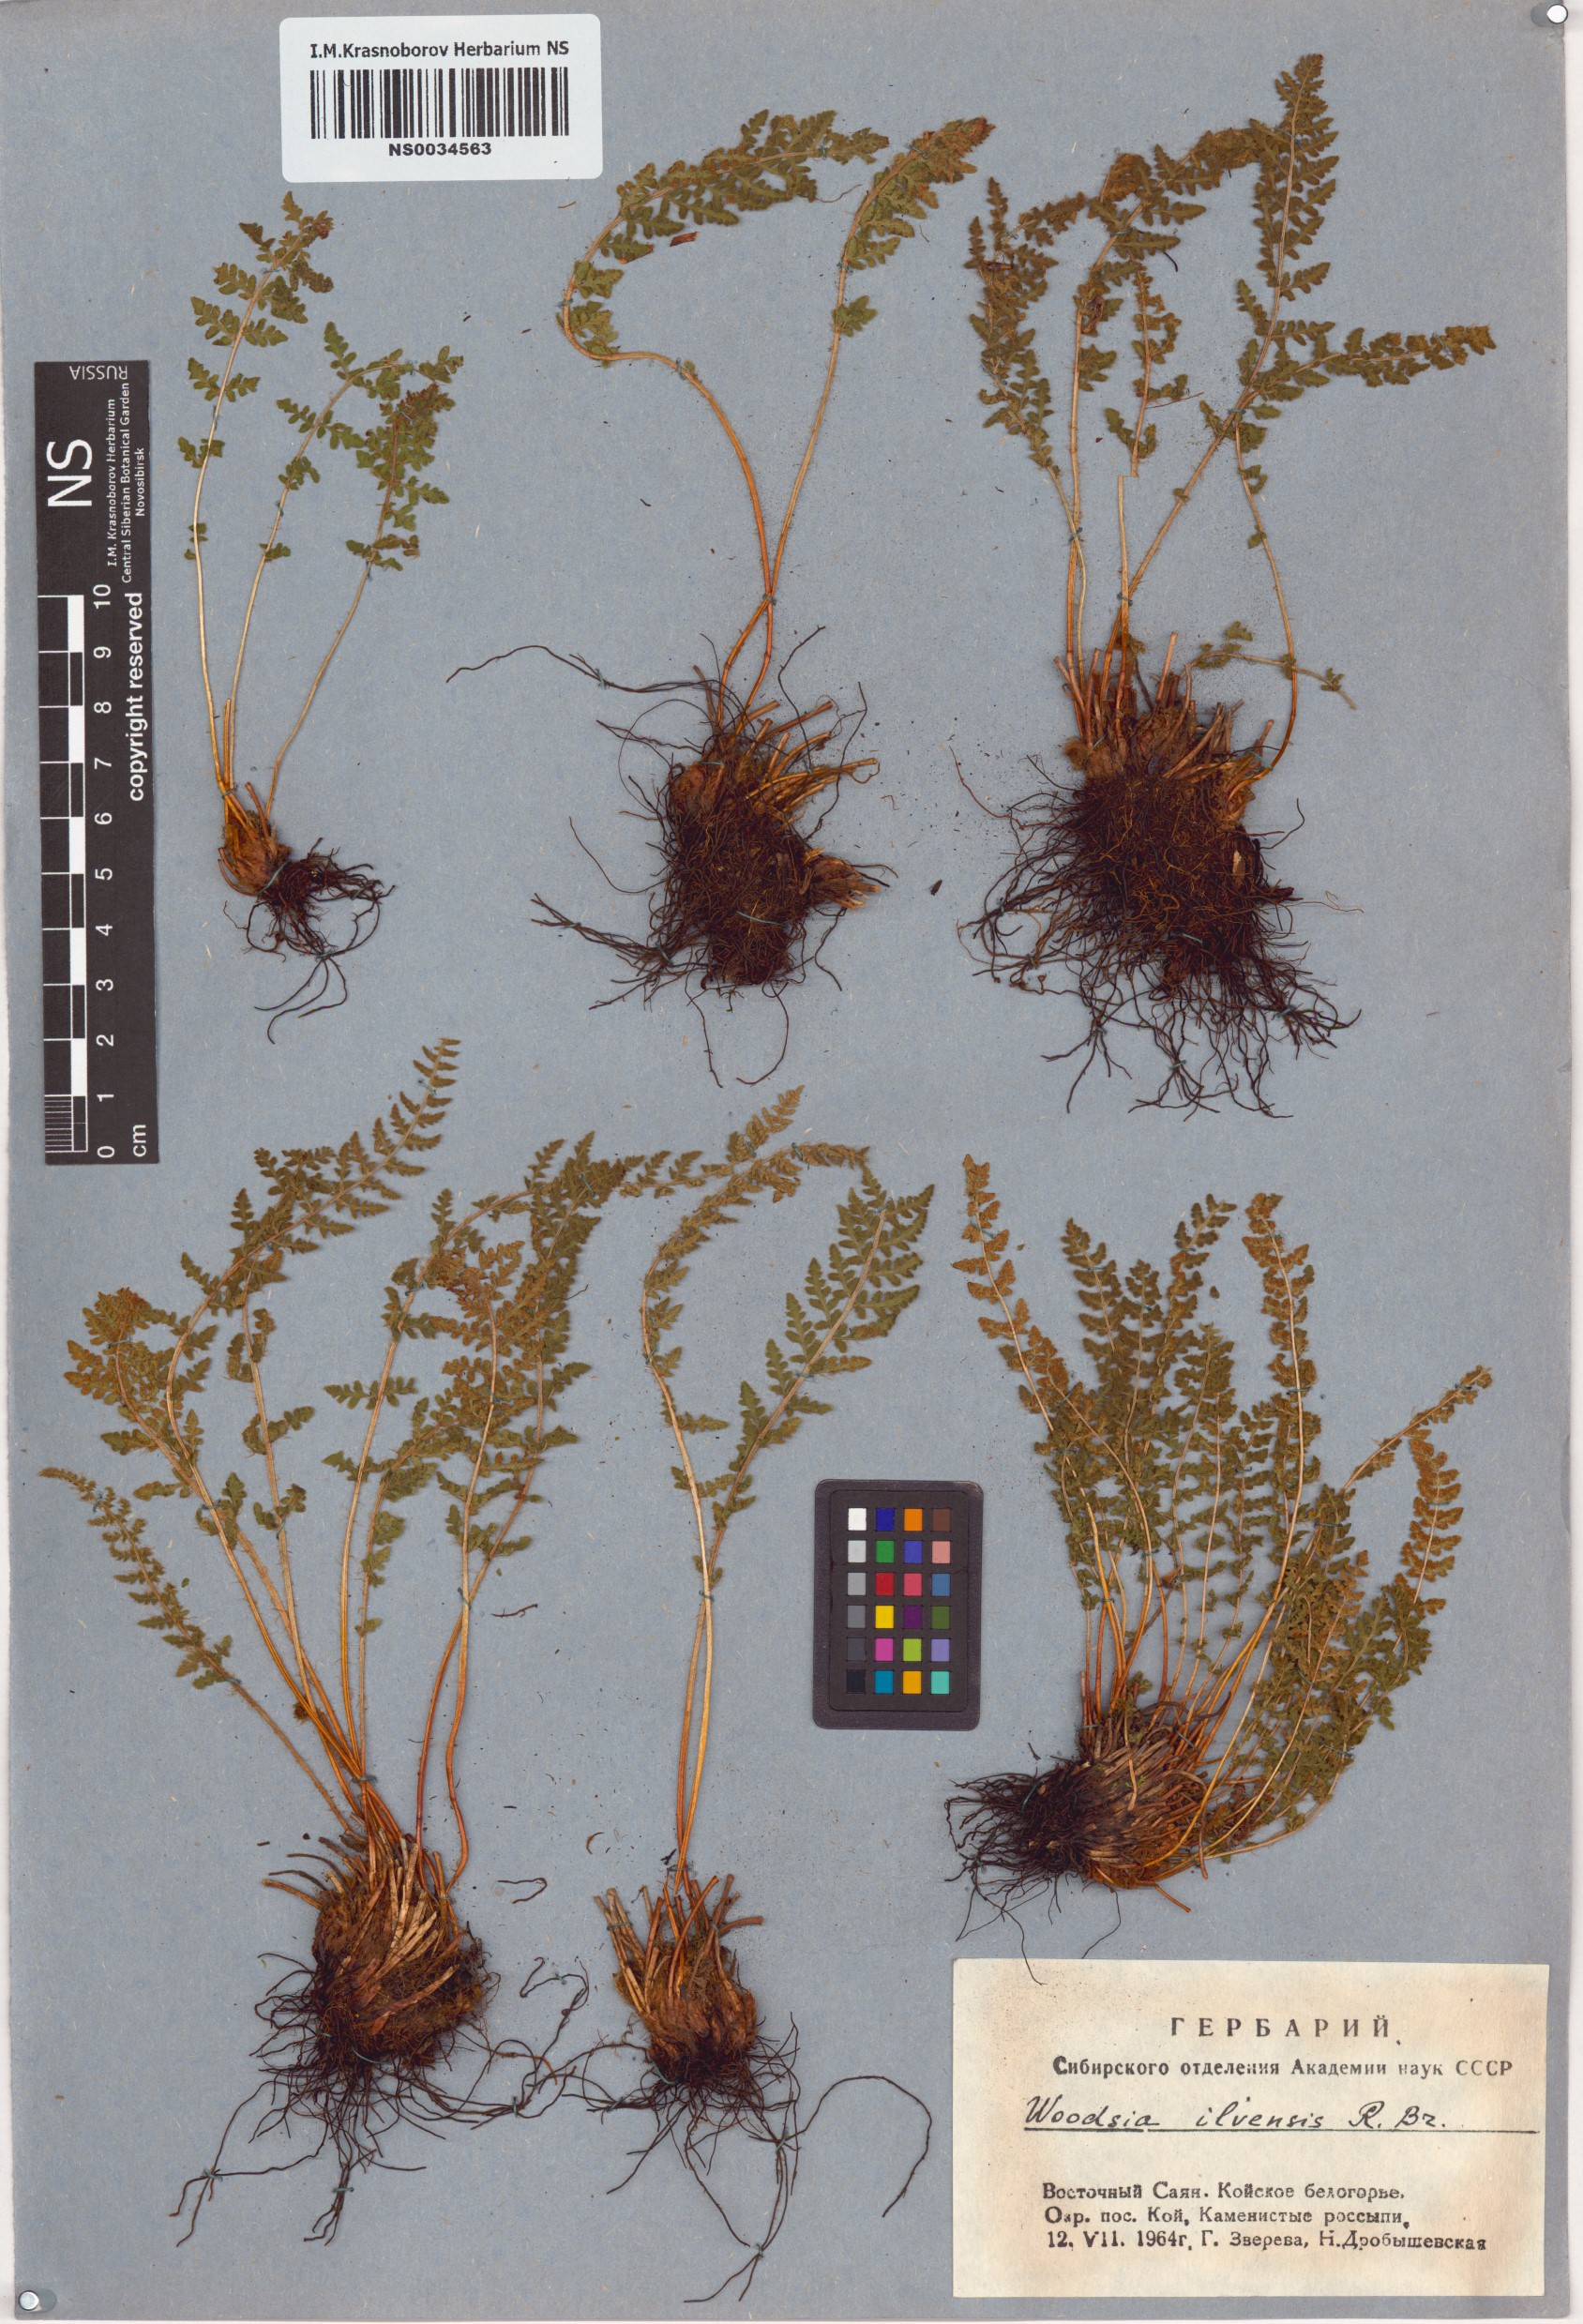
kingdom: Plantae
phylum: Tracheophyta
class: Polypodiopsida
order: Polypodiales
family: Woodsiaceae
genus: Woodsia
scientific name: Woodsia ilvensis
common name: Fragrant woodsia
